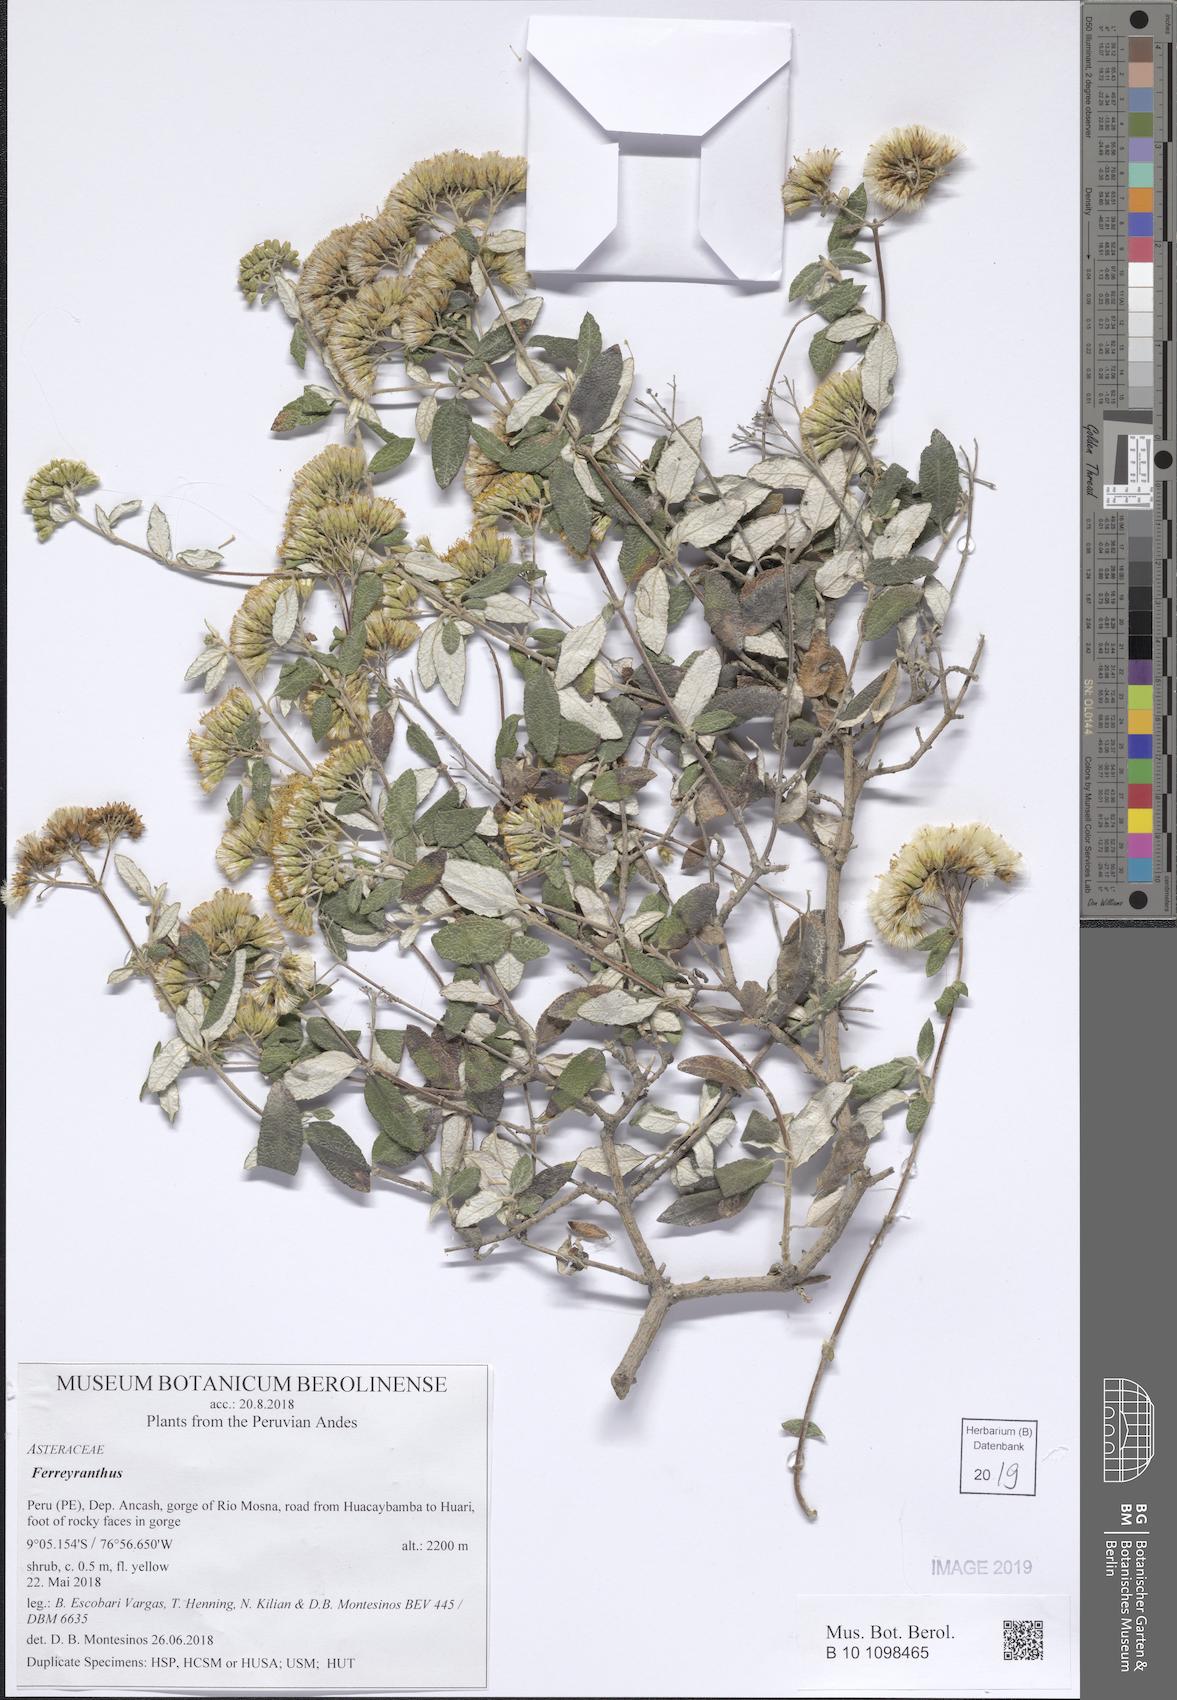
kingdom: Plantae
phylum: Tracheophyta
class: Magnoliopsida
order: Asterales
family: Asteraceae
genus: Ferreyranthus
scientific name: Ferreyranthus gentryi
